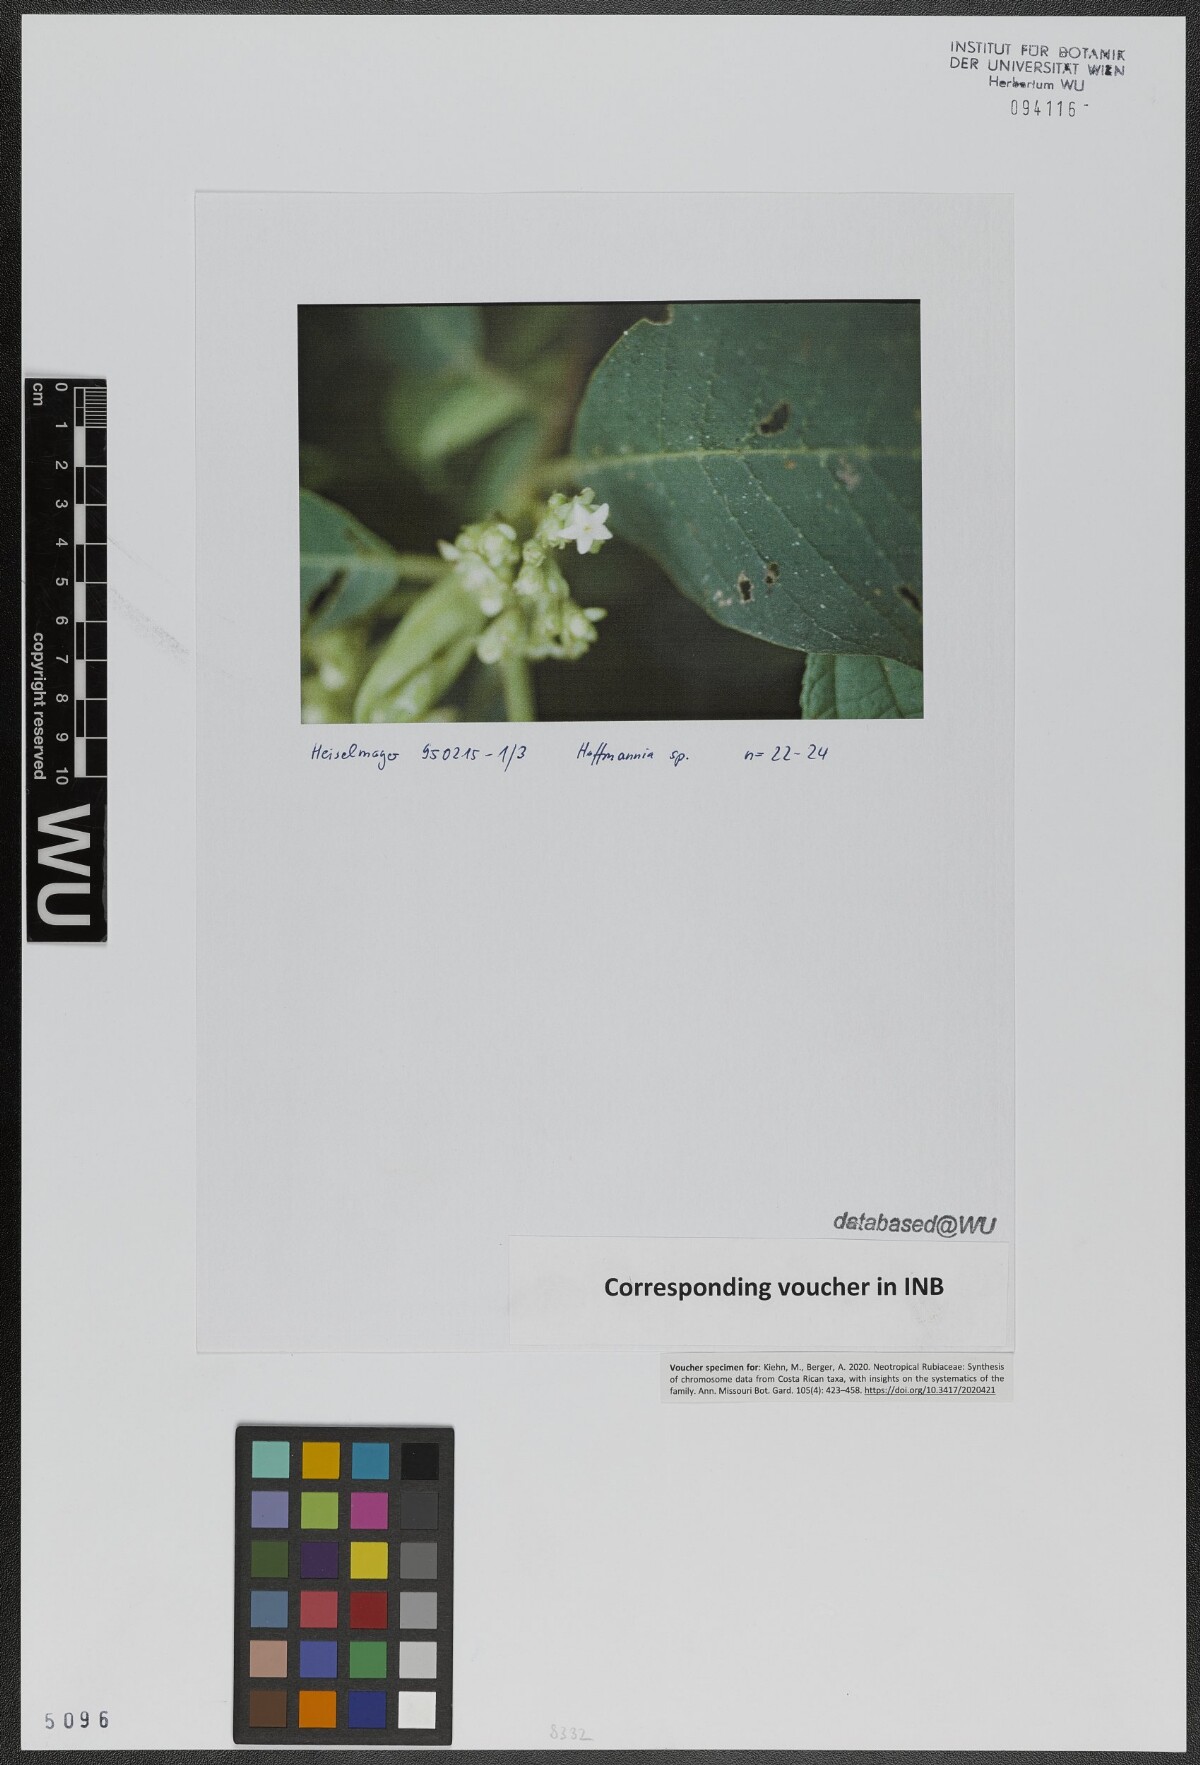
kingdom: Plantae
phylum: Tracheophyta
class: Magnoliopsida
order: Gentianales
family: Rubiaceae
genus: Hoffmannia
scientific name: Hoffmannia
